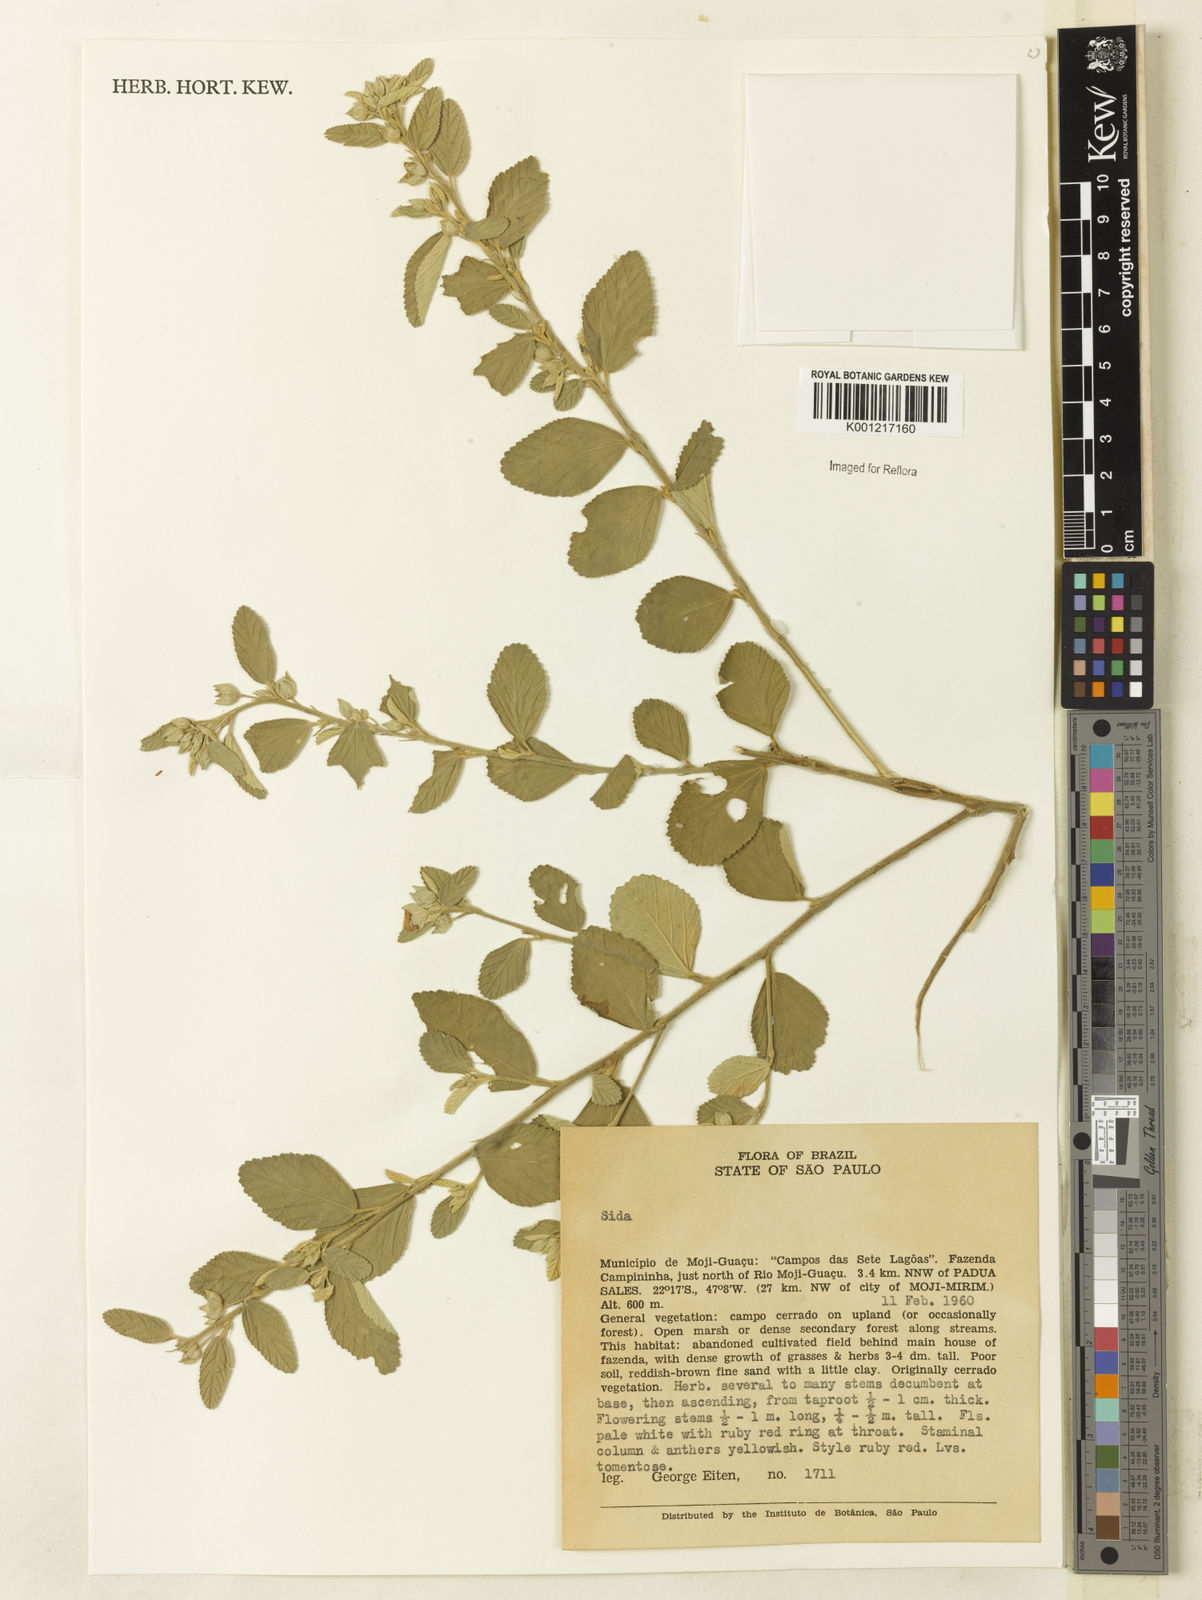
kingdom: Plantae
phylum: Tracheophyta
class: Magnoliopsida
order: Malvales
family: Malvaceae
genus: Sida
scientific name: Sida
